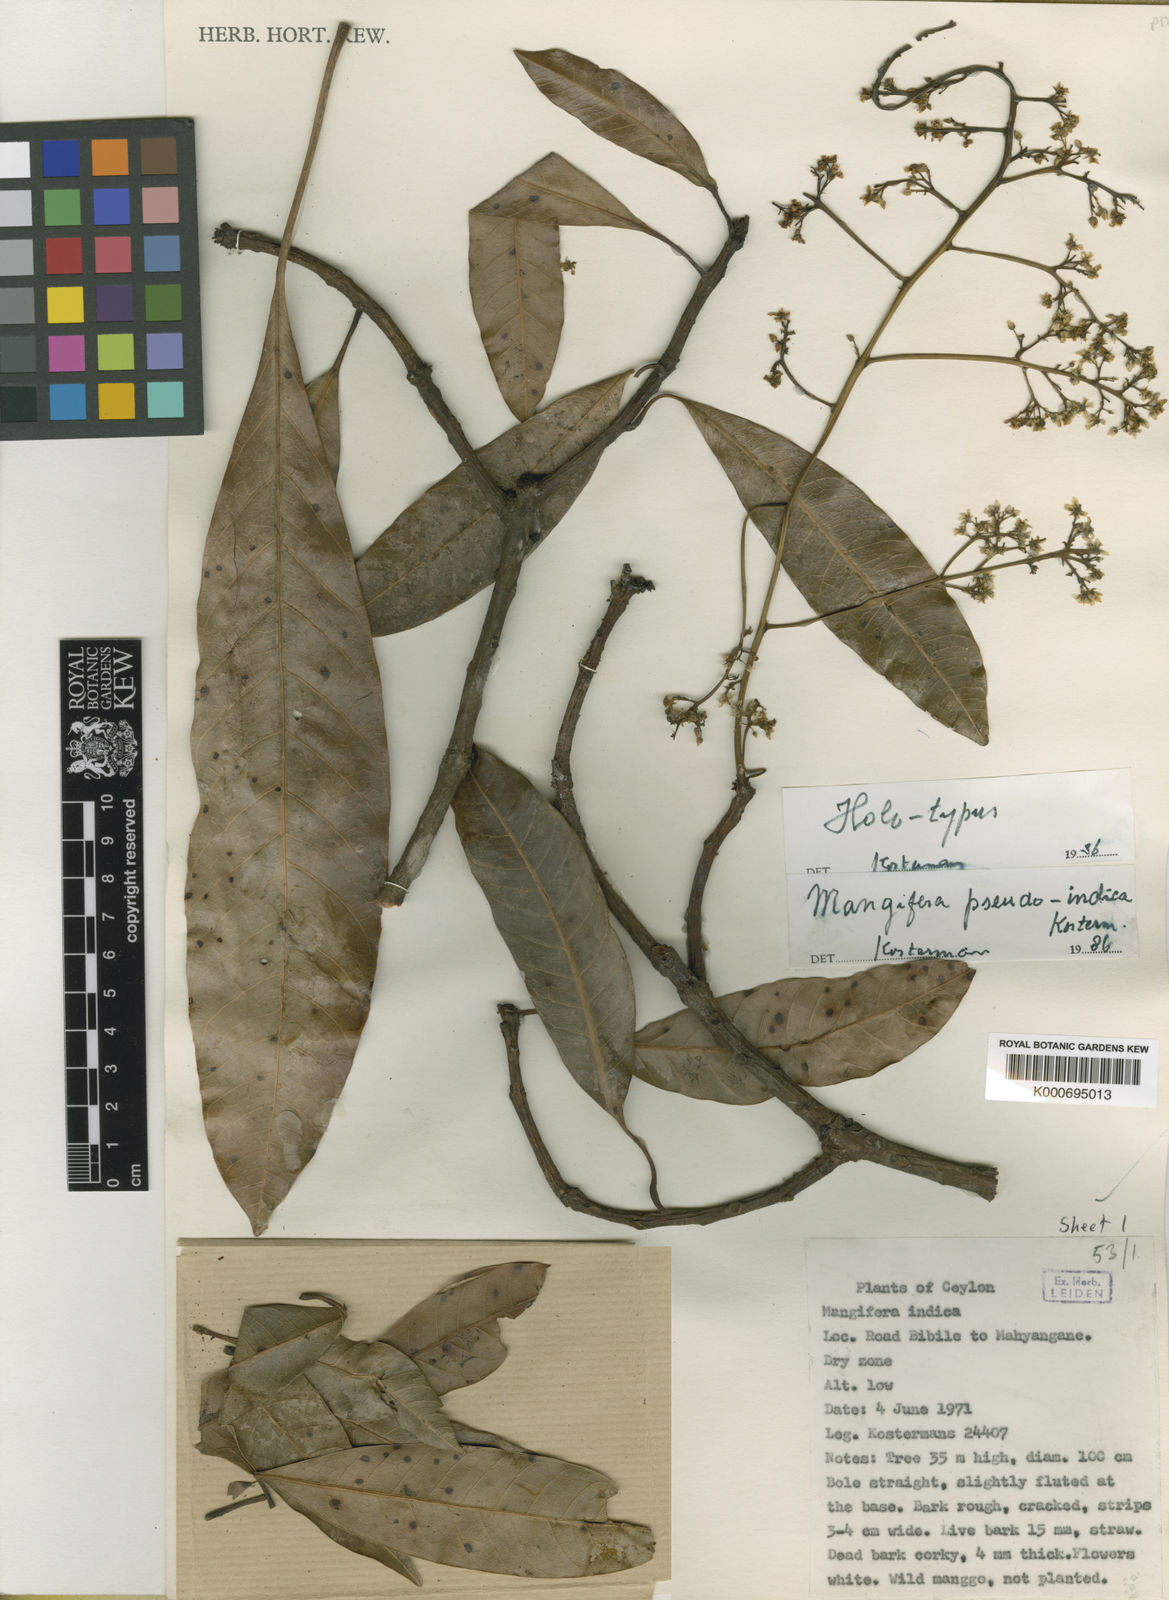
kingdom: Plantae
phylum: Tracheophyta
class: Magnoliopsida
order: Sapindales
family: Anacardiaceae
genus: Mangifera
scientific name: Mangifera pseudoindica
